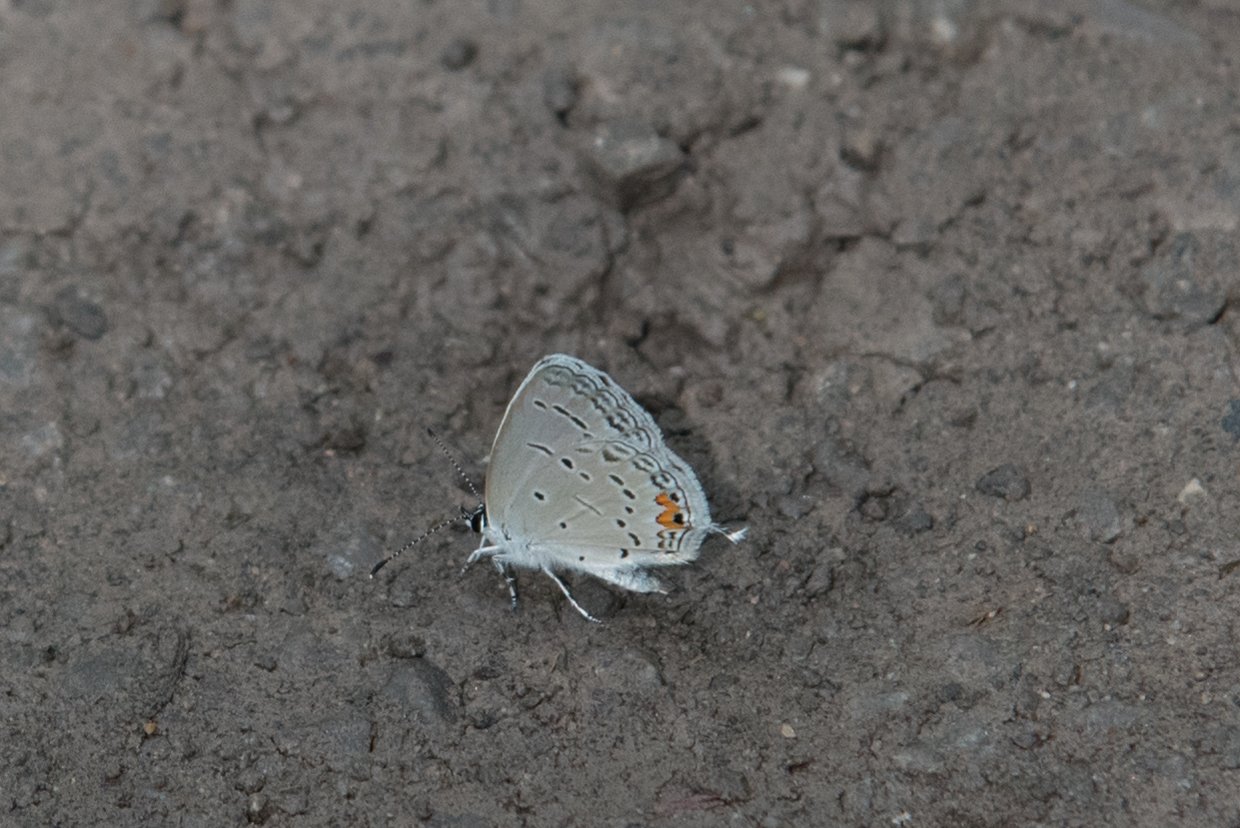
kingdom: Animalia
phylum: Arthropoda
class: Insecta
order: Lepidoptera
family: Lycaenidae
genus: Elkalyce
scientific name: Elkalyce comyntas
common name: Eastern Tailed-Blue
